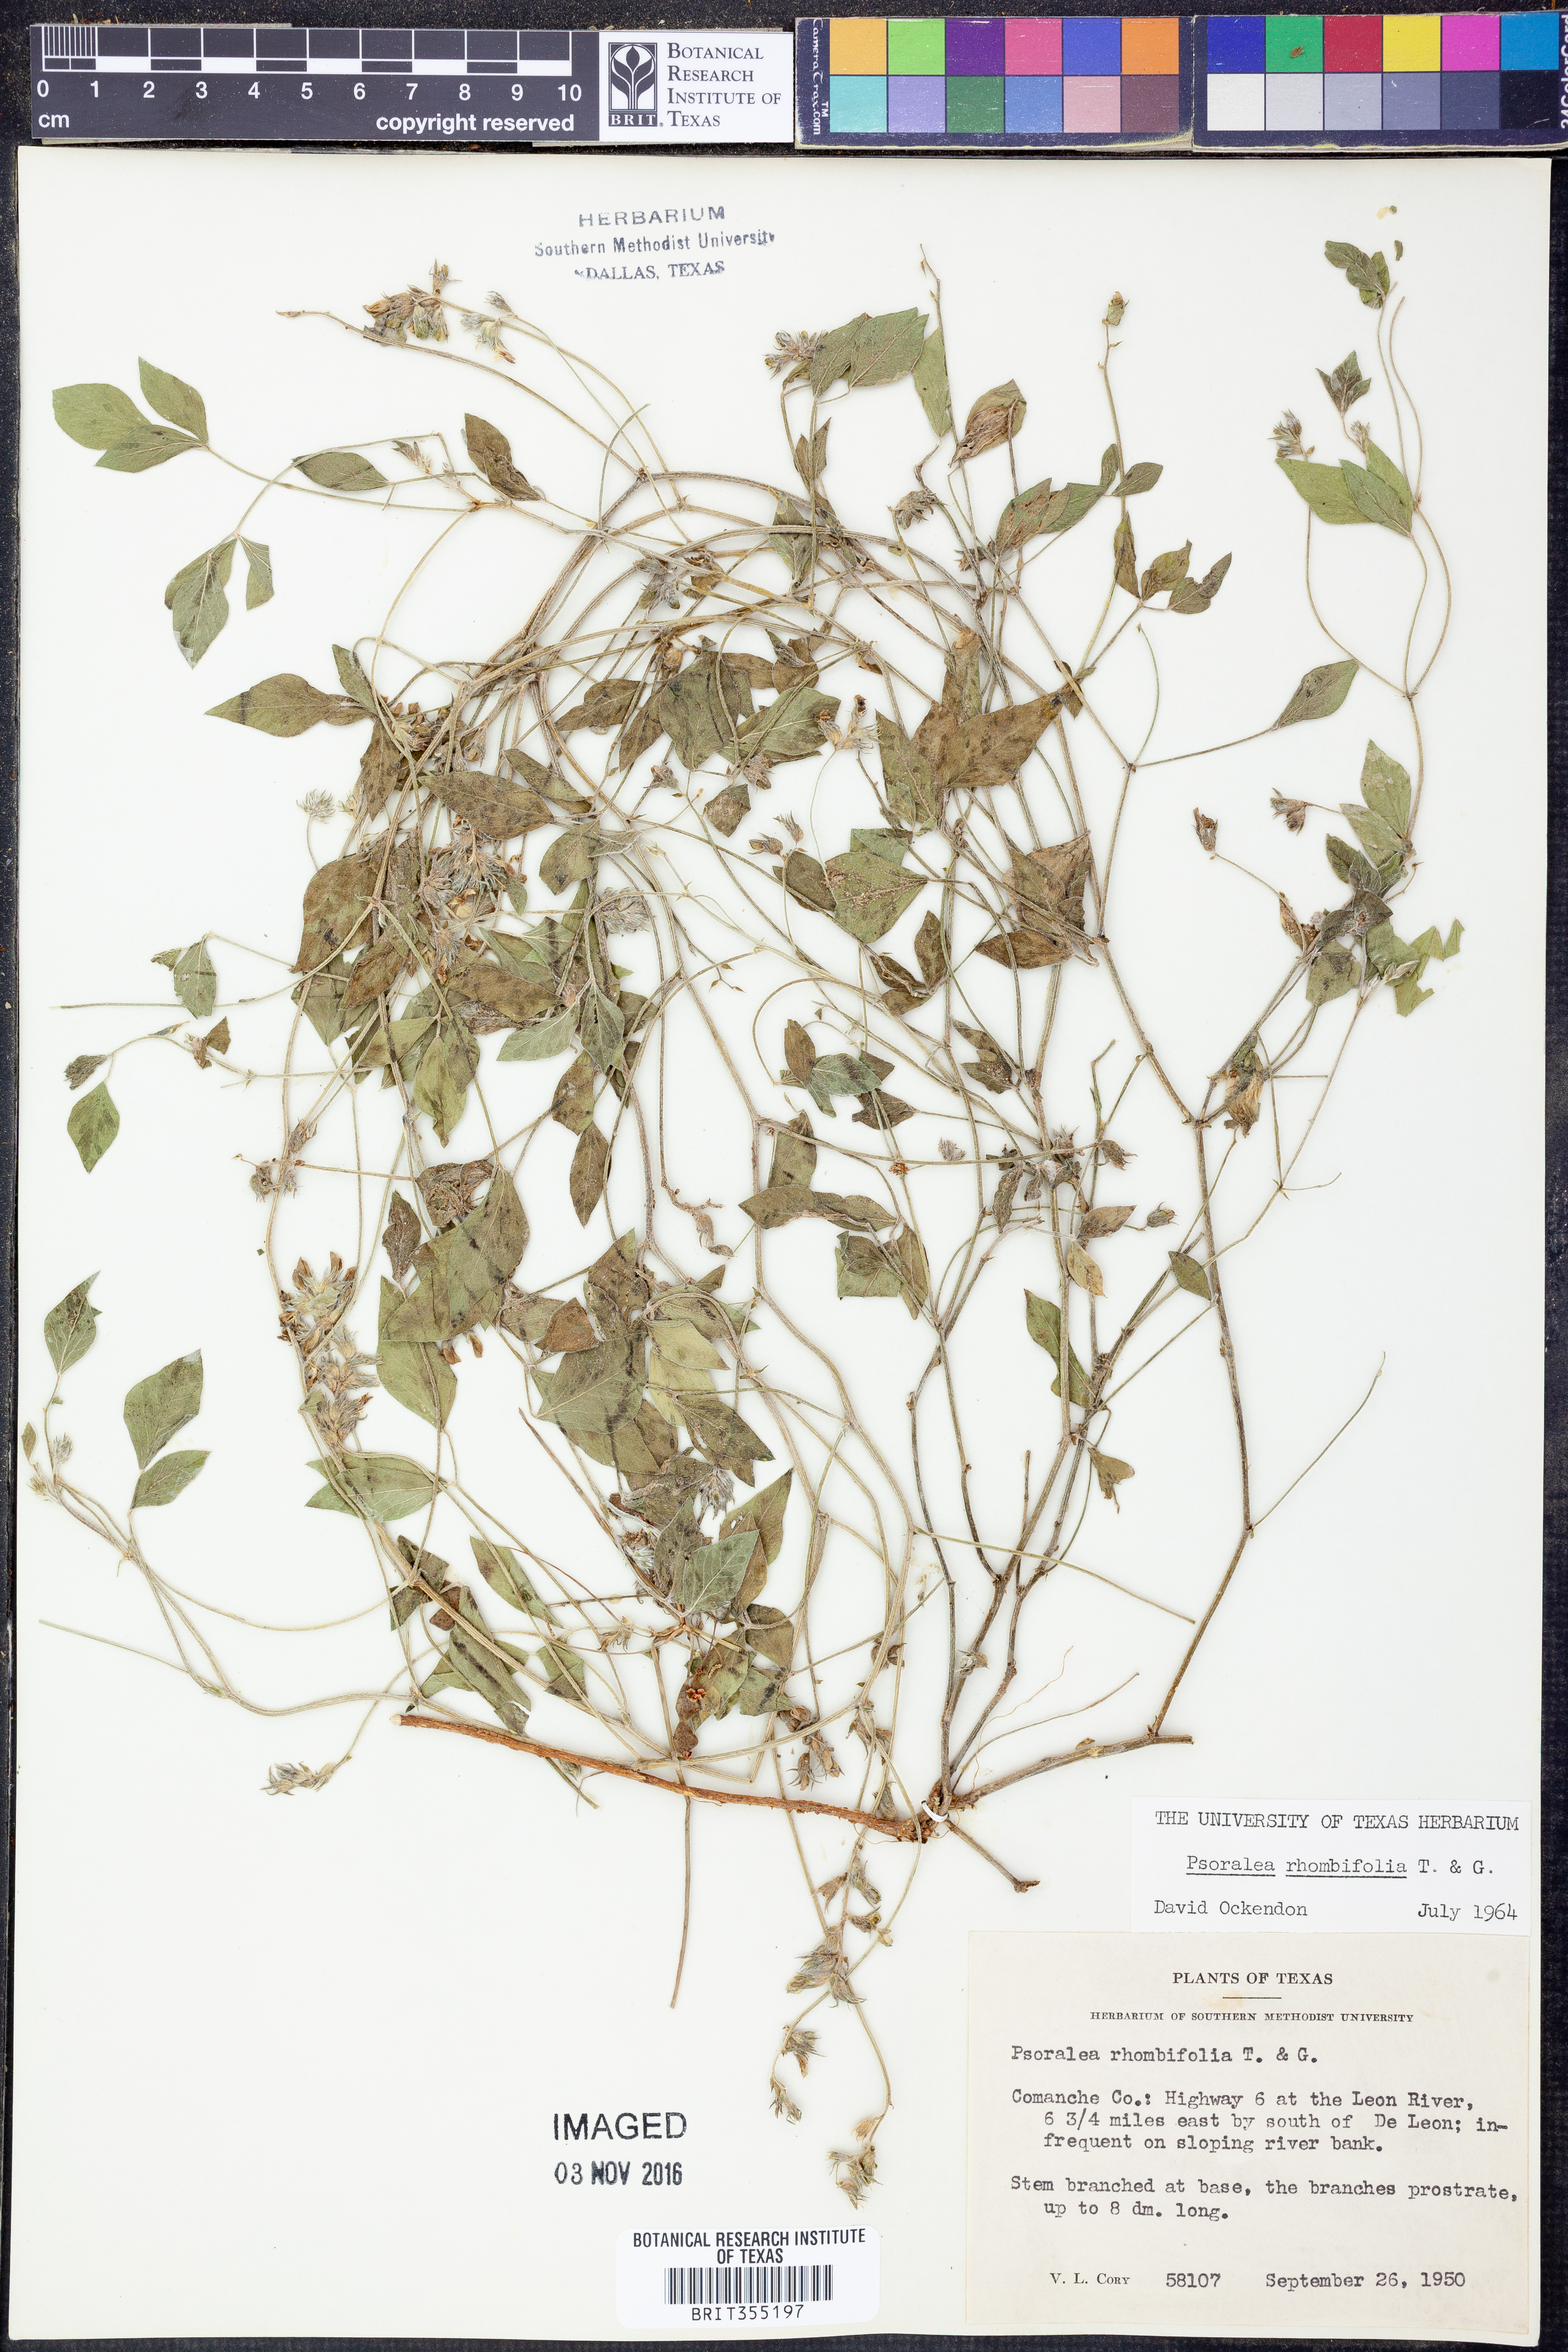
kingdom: Plantae
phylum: Tracheophyta
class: Magnoliopsida
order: Fabales
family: Fabaceae
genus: Pediomelum
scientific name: Pediomelum rhombifolium
